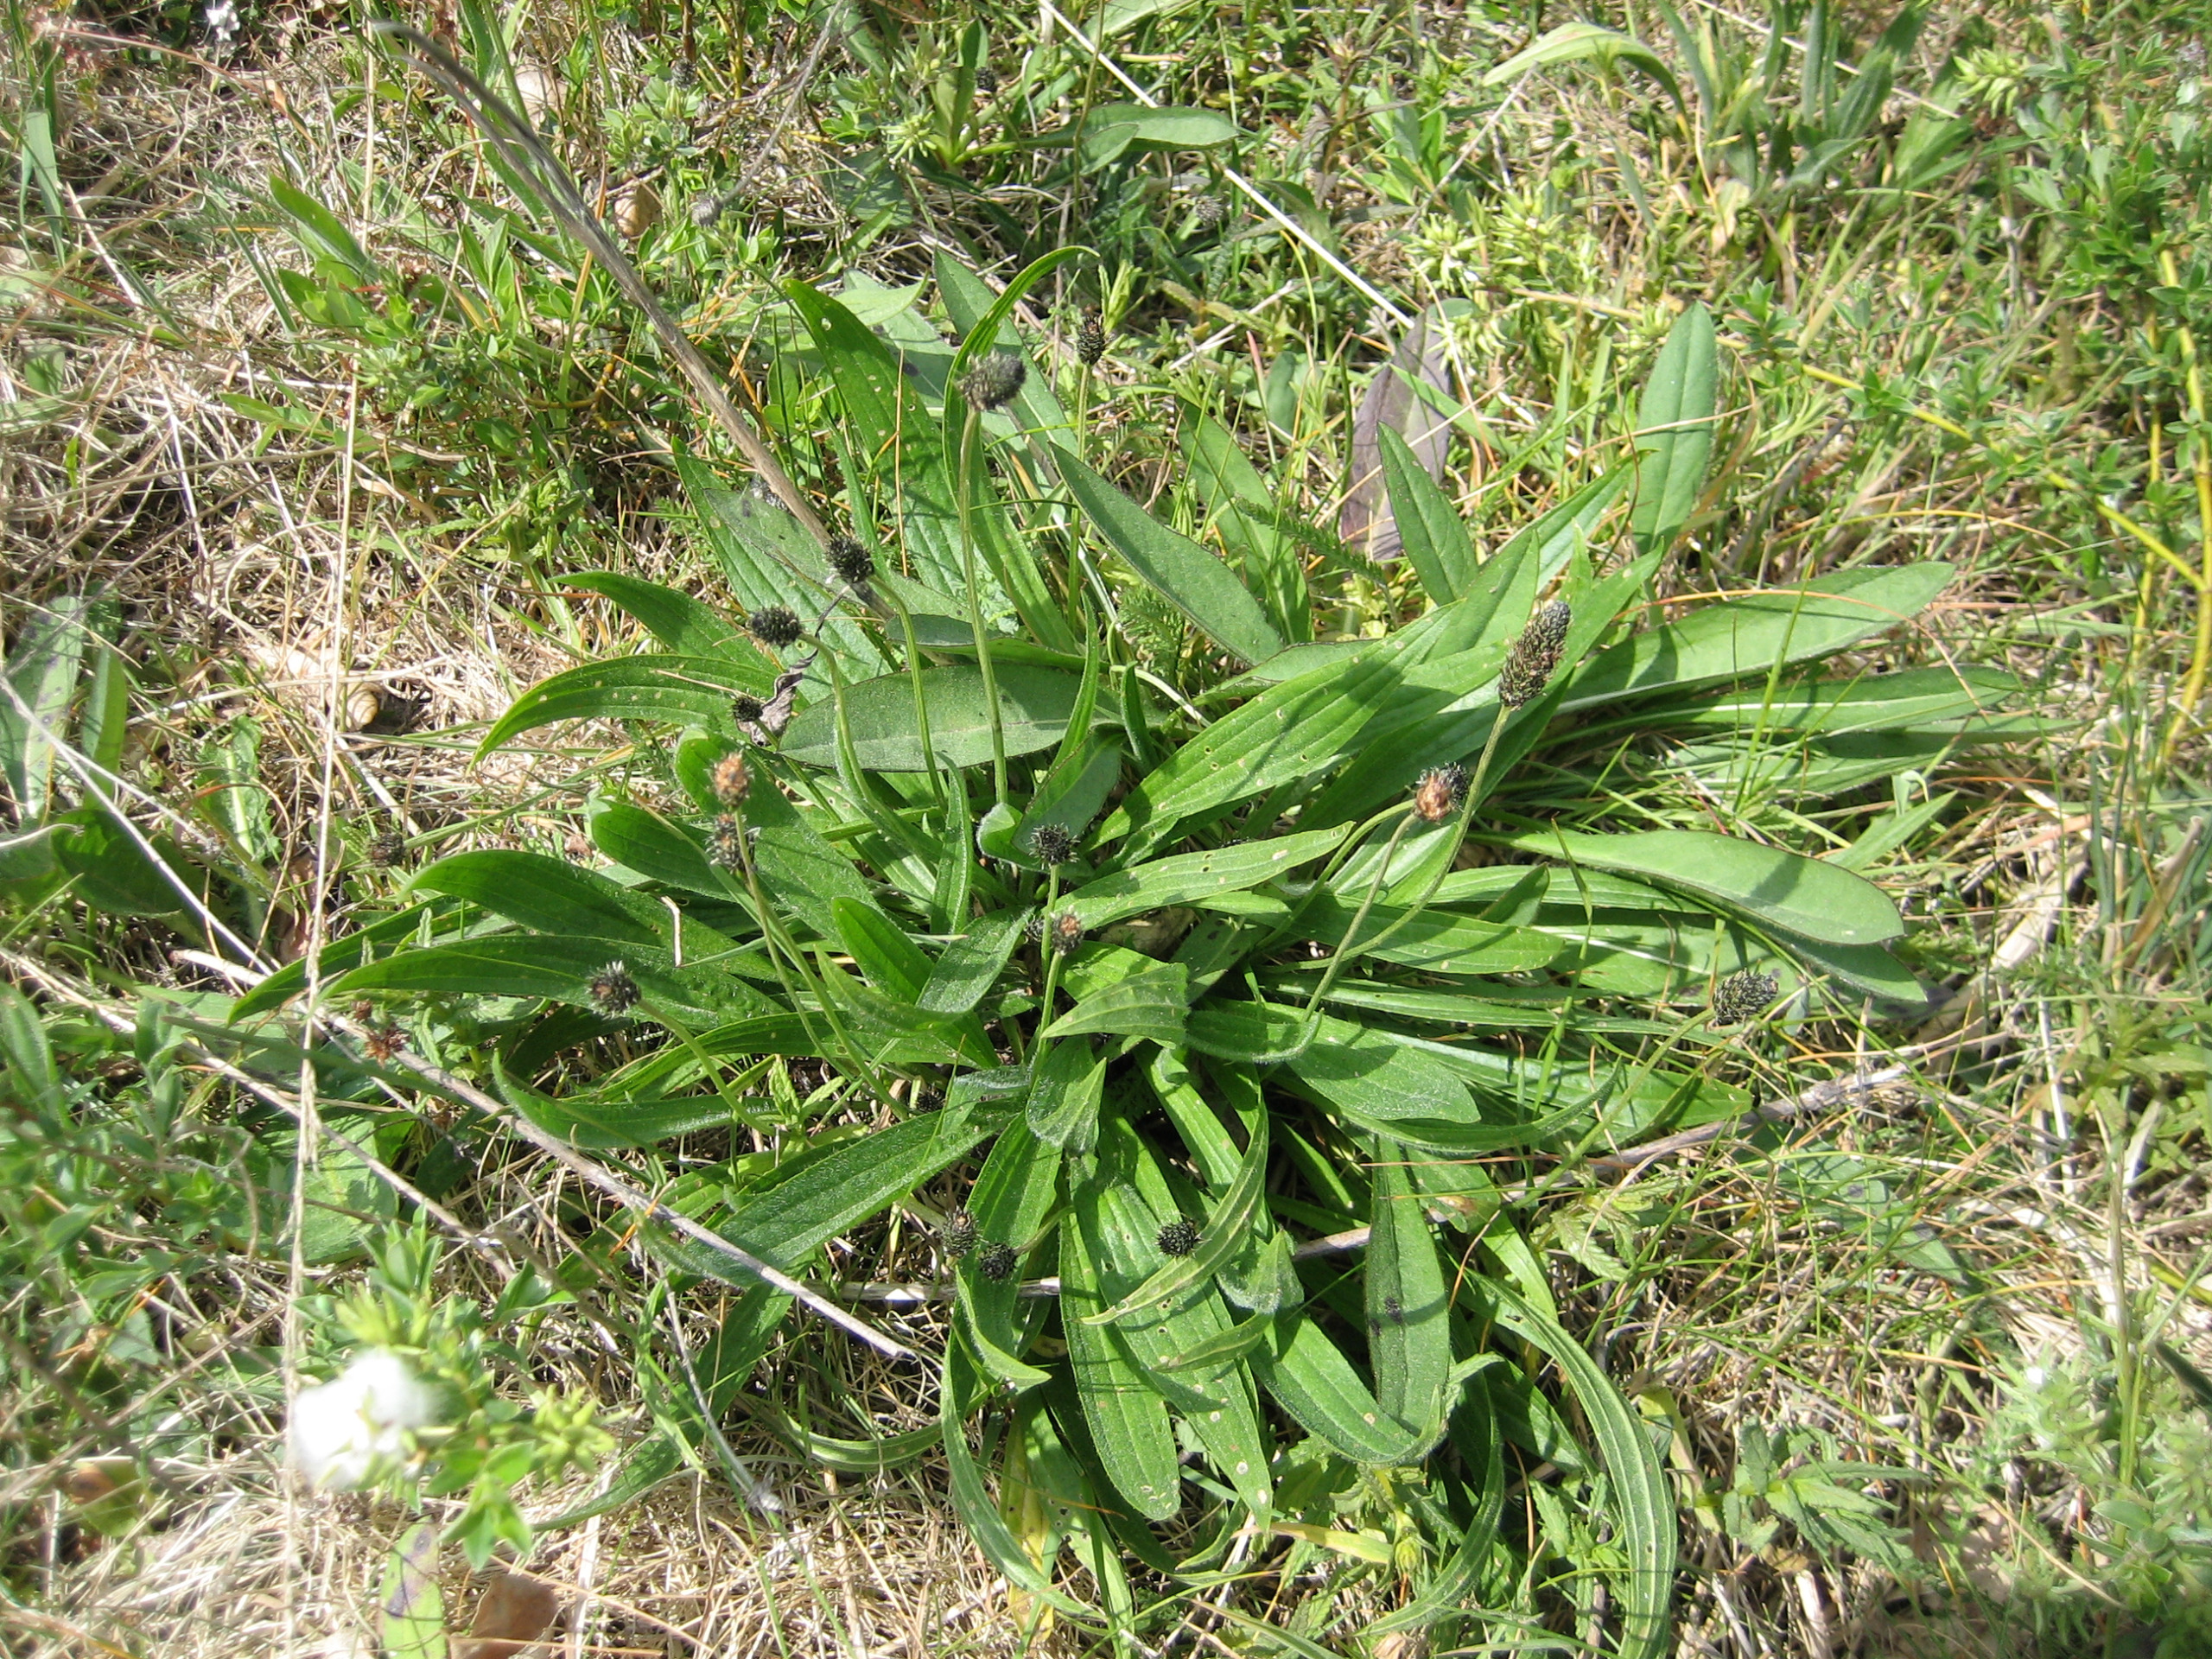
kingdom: Plantae
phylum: Tracheophyta
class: Magnoliopsida
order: Lamiales
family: Plantaginaceae
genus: Plantago
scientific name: Plantago lanceolata
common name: Lancet-vejbred
